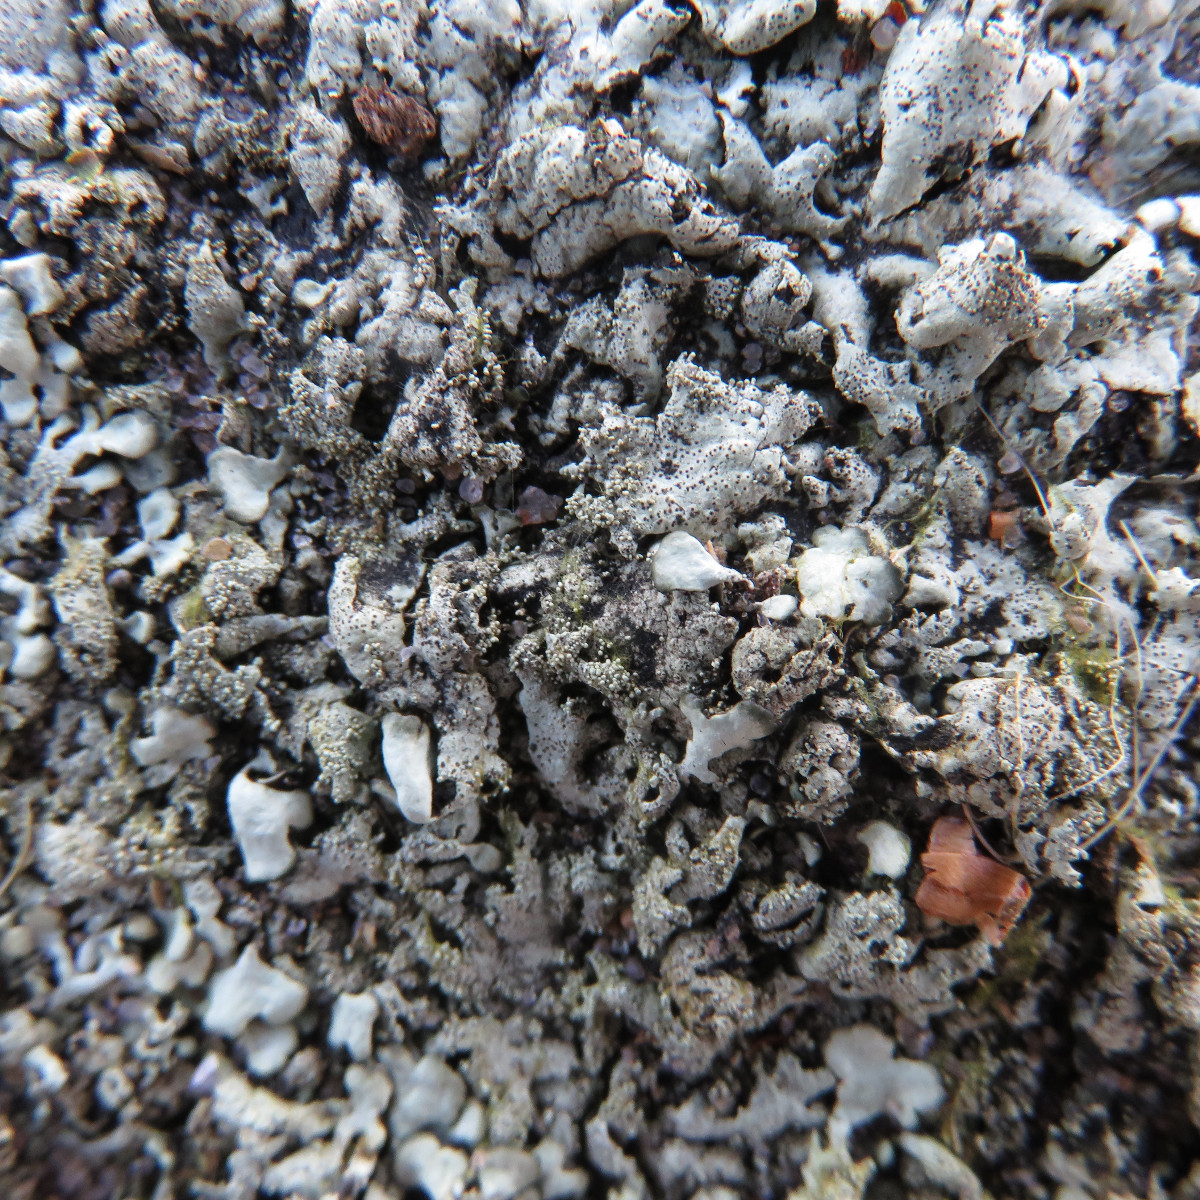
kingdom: Fungi
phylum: Ascomycota
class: Lecanoromycetes
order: Lecanorales
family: Parmeliaceae
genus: Xanthoparmelia
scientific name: Xanthoparmelia conspersa
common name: messing-skållav
